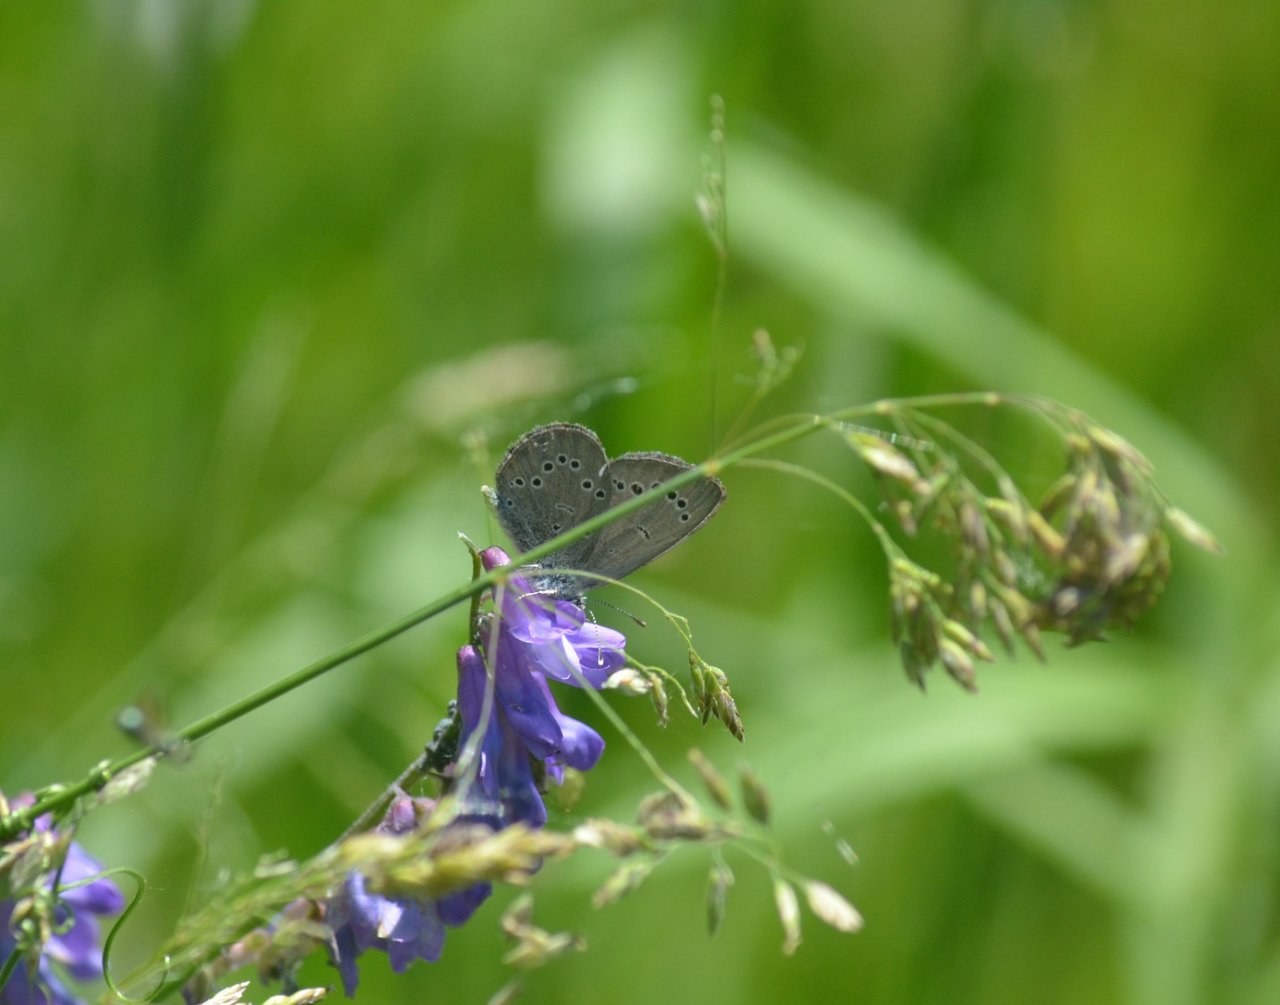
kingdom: Animalia
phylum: Arthropoda
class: Insecta
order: Lepidoptera
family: Lycaenidae
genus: Glaucopsyche
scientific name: Glaucopsyche lygdamus
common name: Silvery Blue
